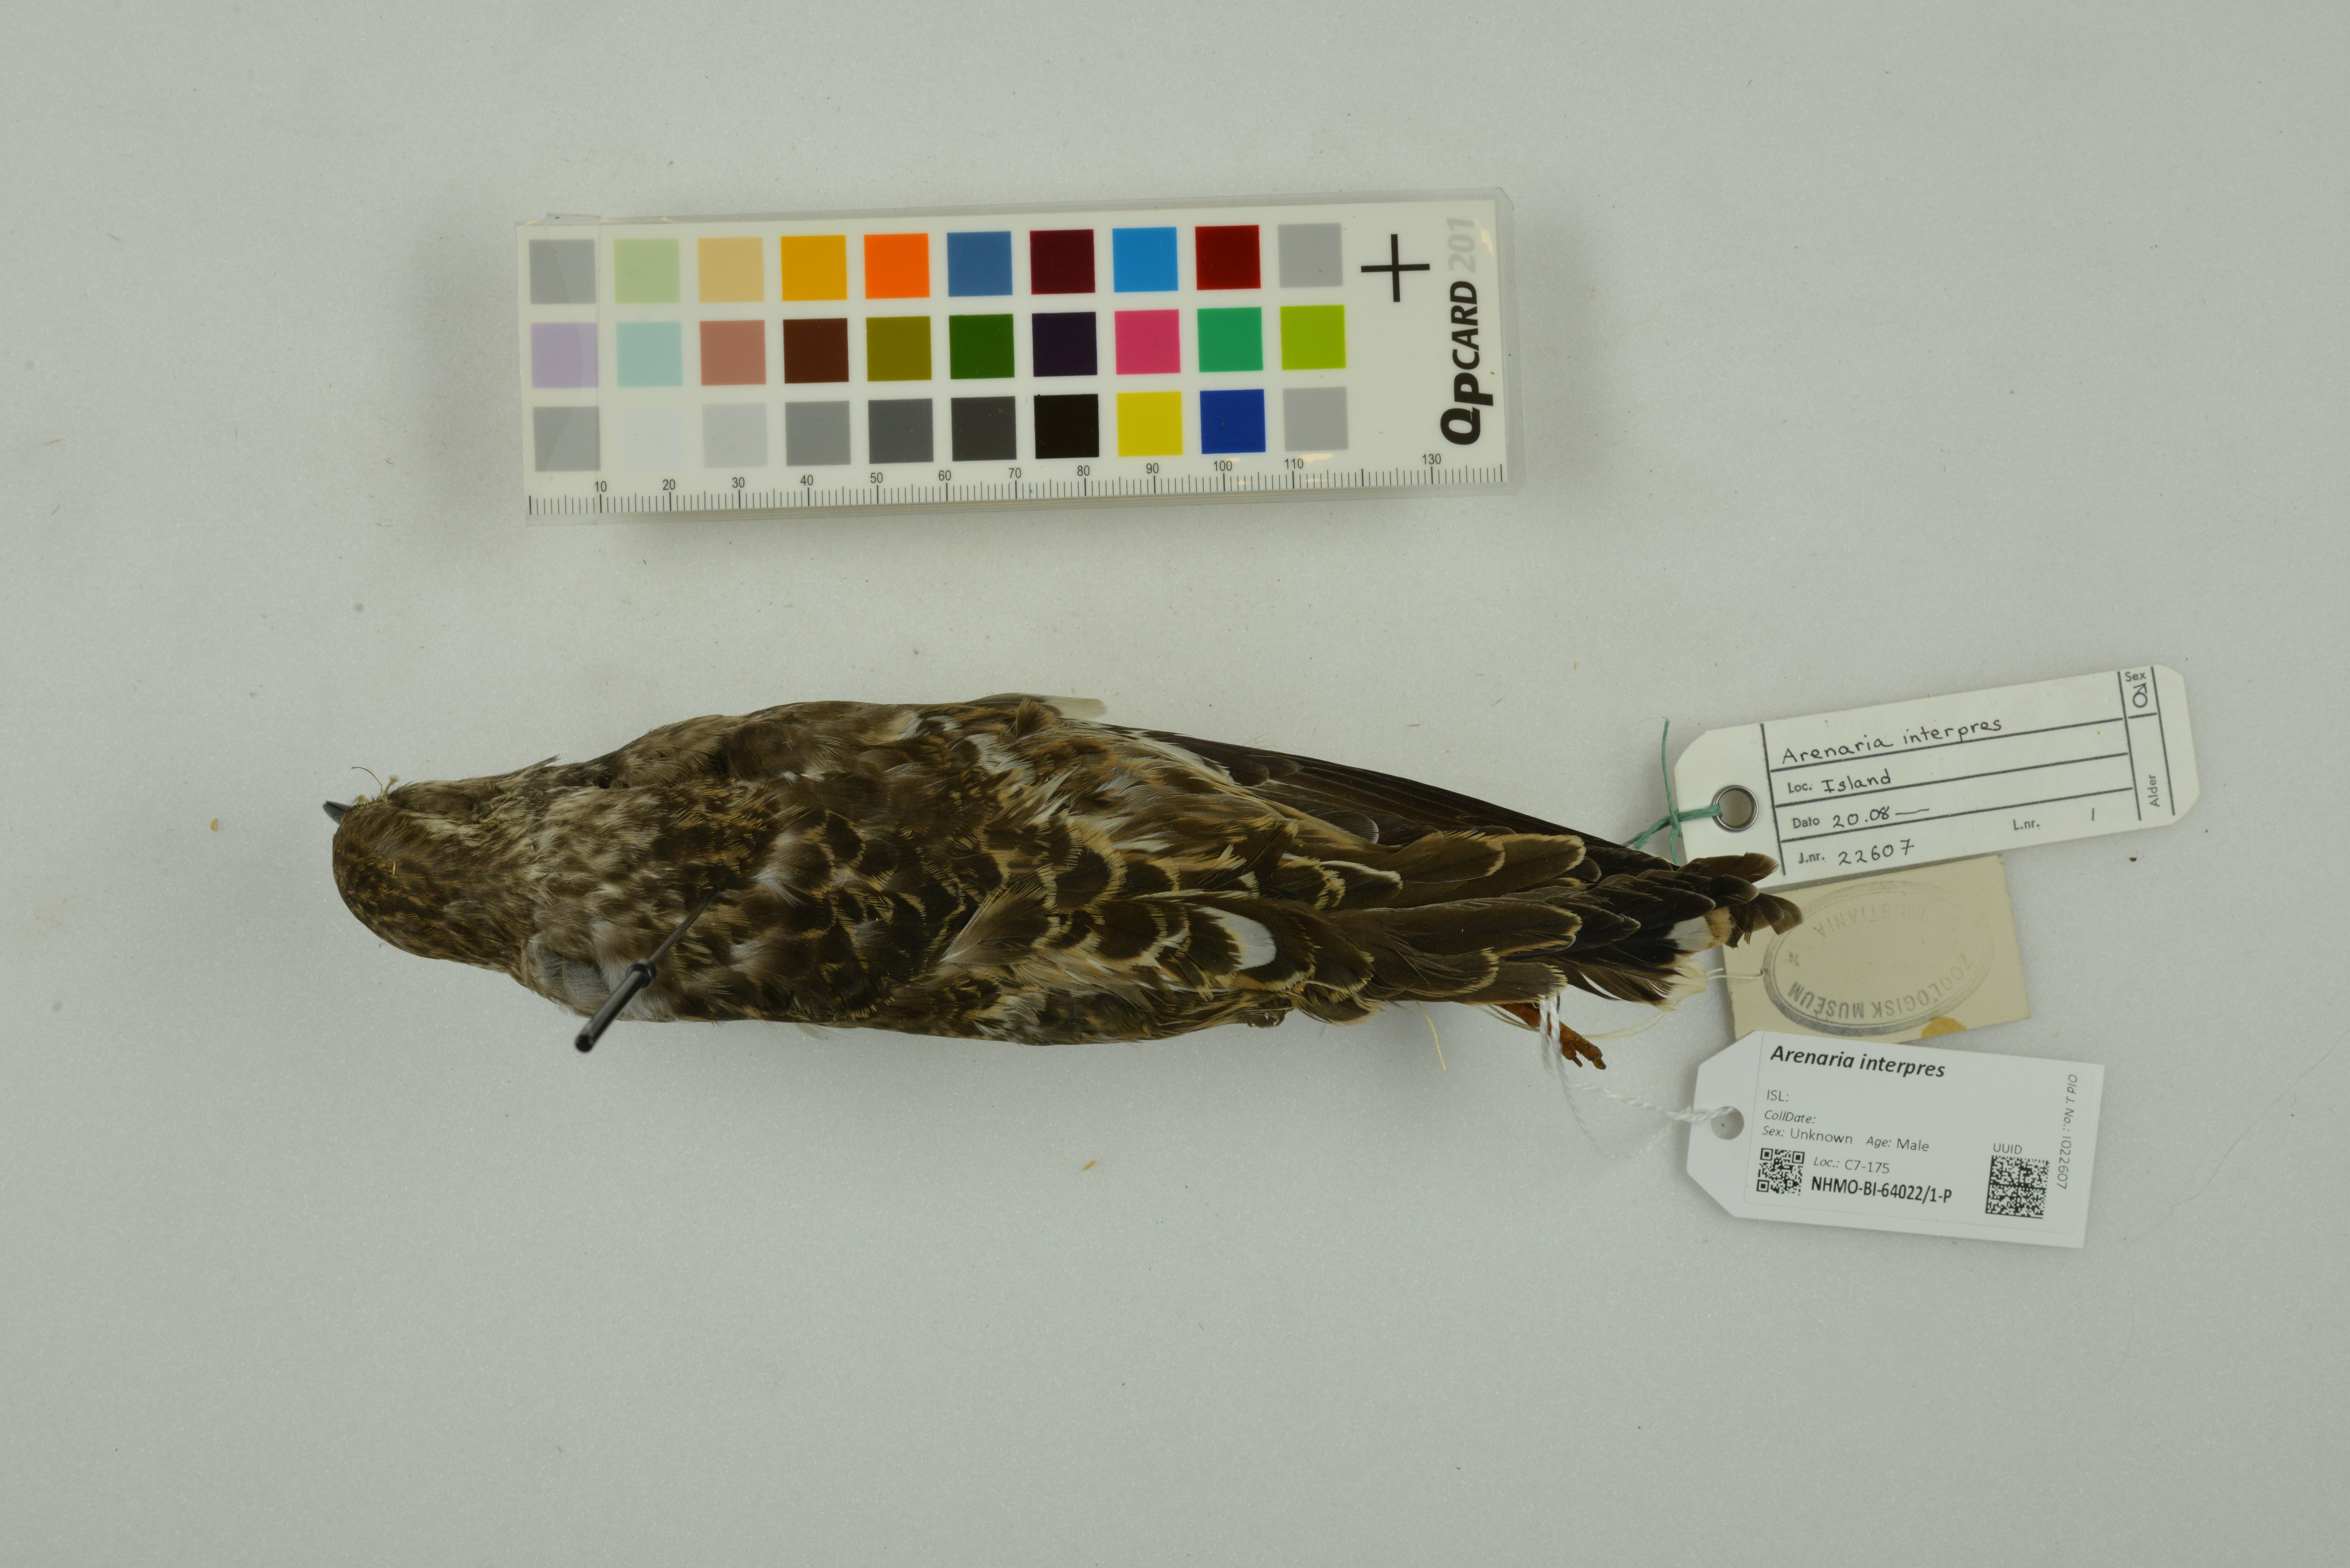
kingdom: Animalia
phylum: Chordata
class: Aves
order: Charadriiformes
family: Scolopacidae
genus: Arenaria
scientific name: Arenaria interpres
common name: Ruddy turnstone
